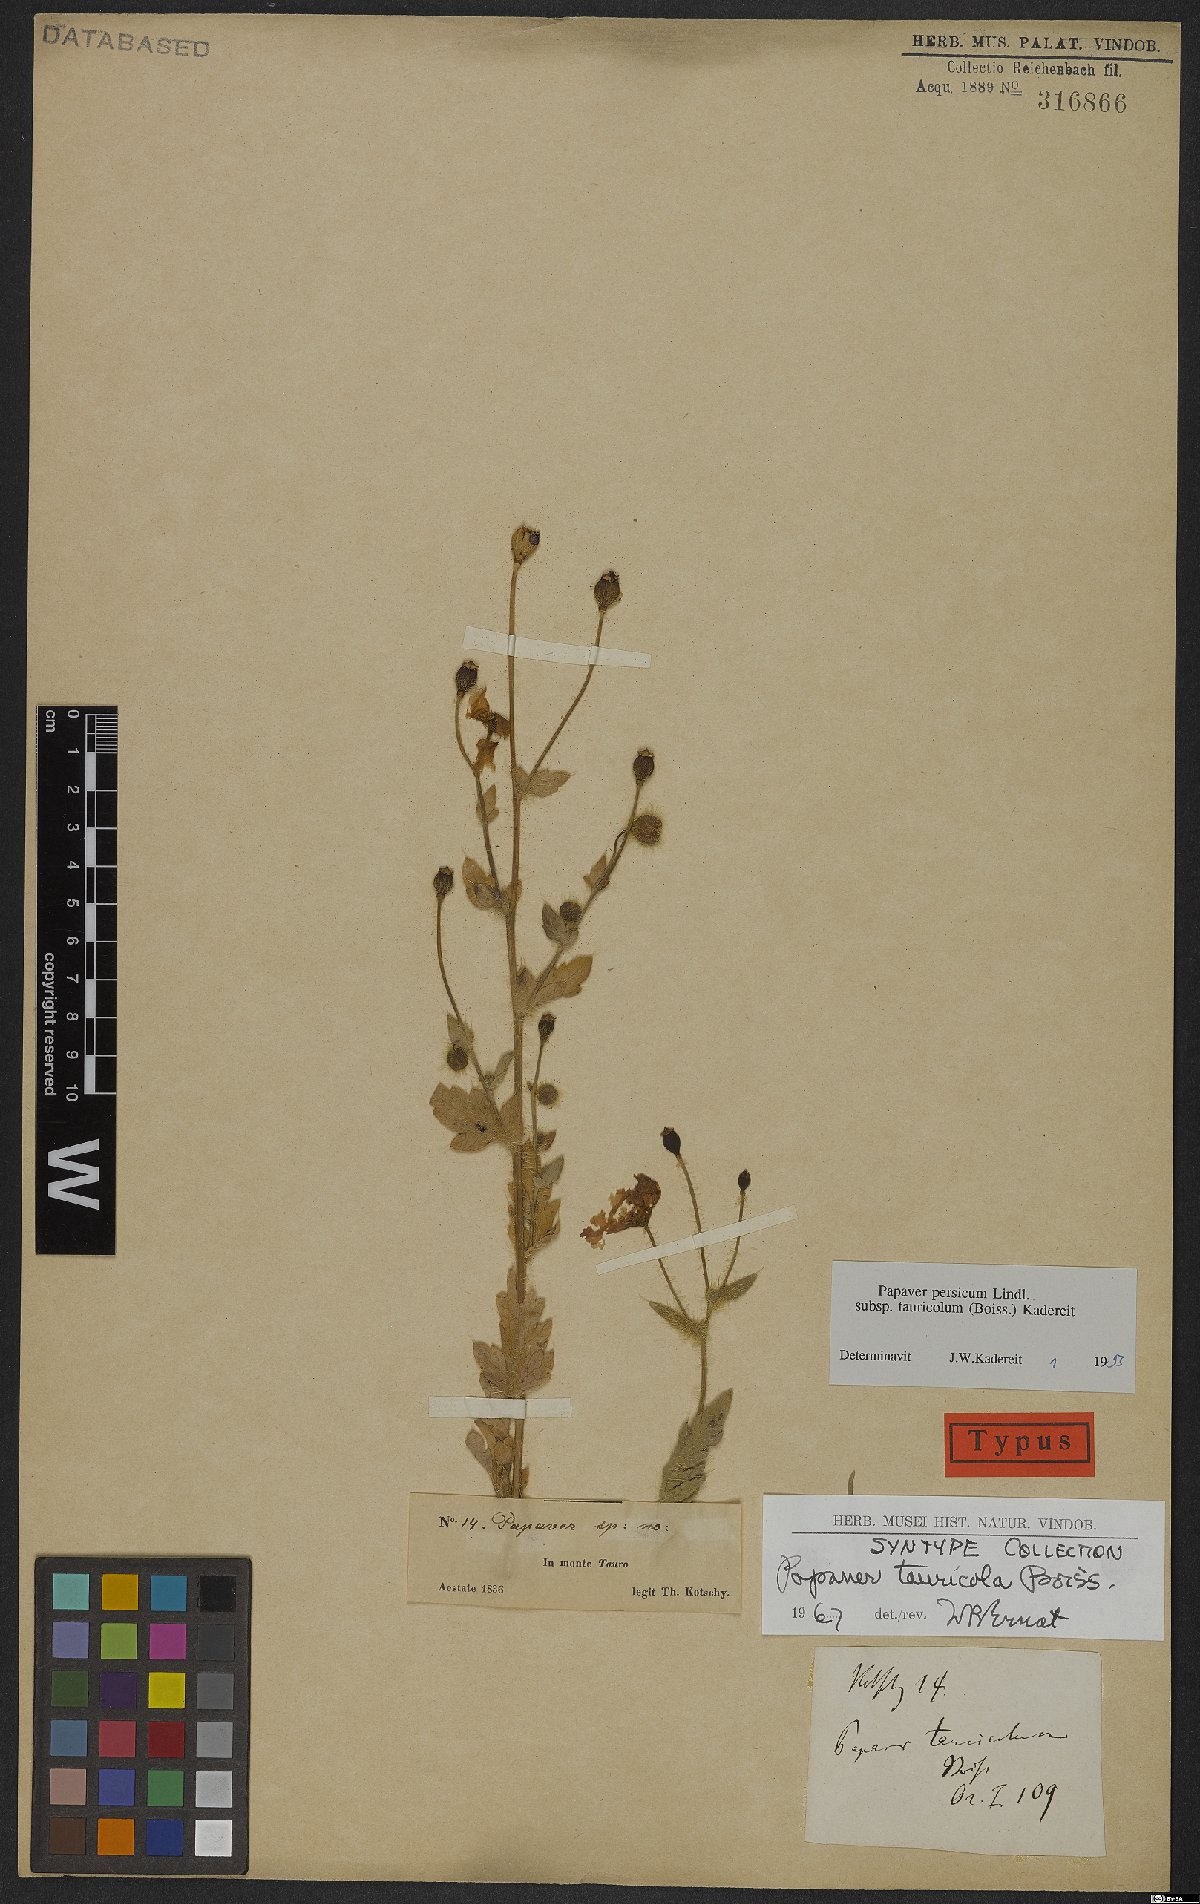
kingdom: Plantae
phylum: Tracheophyta
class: Magnoliopsida
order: Ranunculales
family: Papaveraceae
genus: Papaver
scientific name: Papaver persicum
